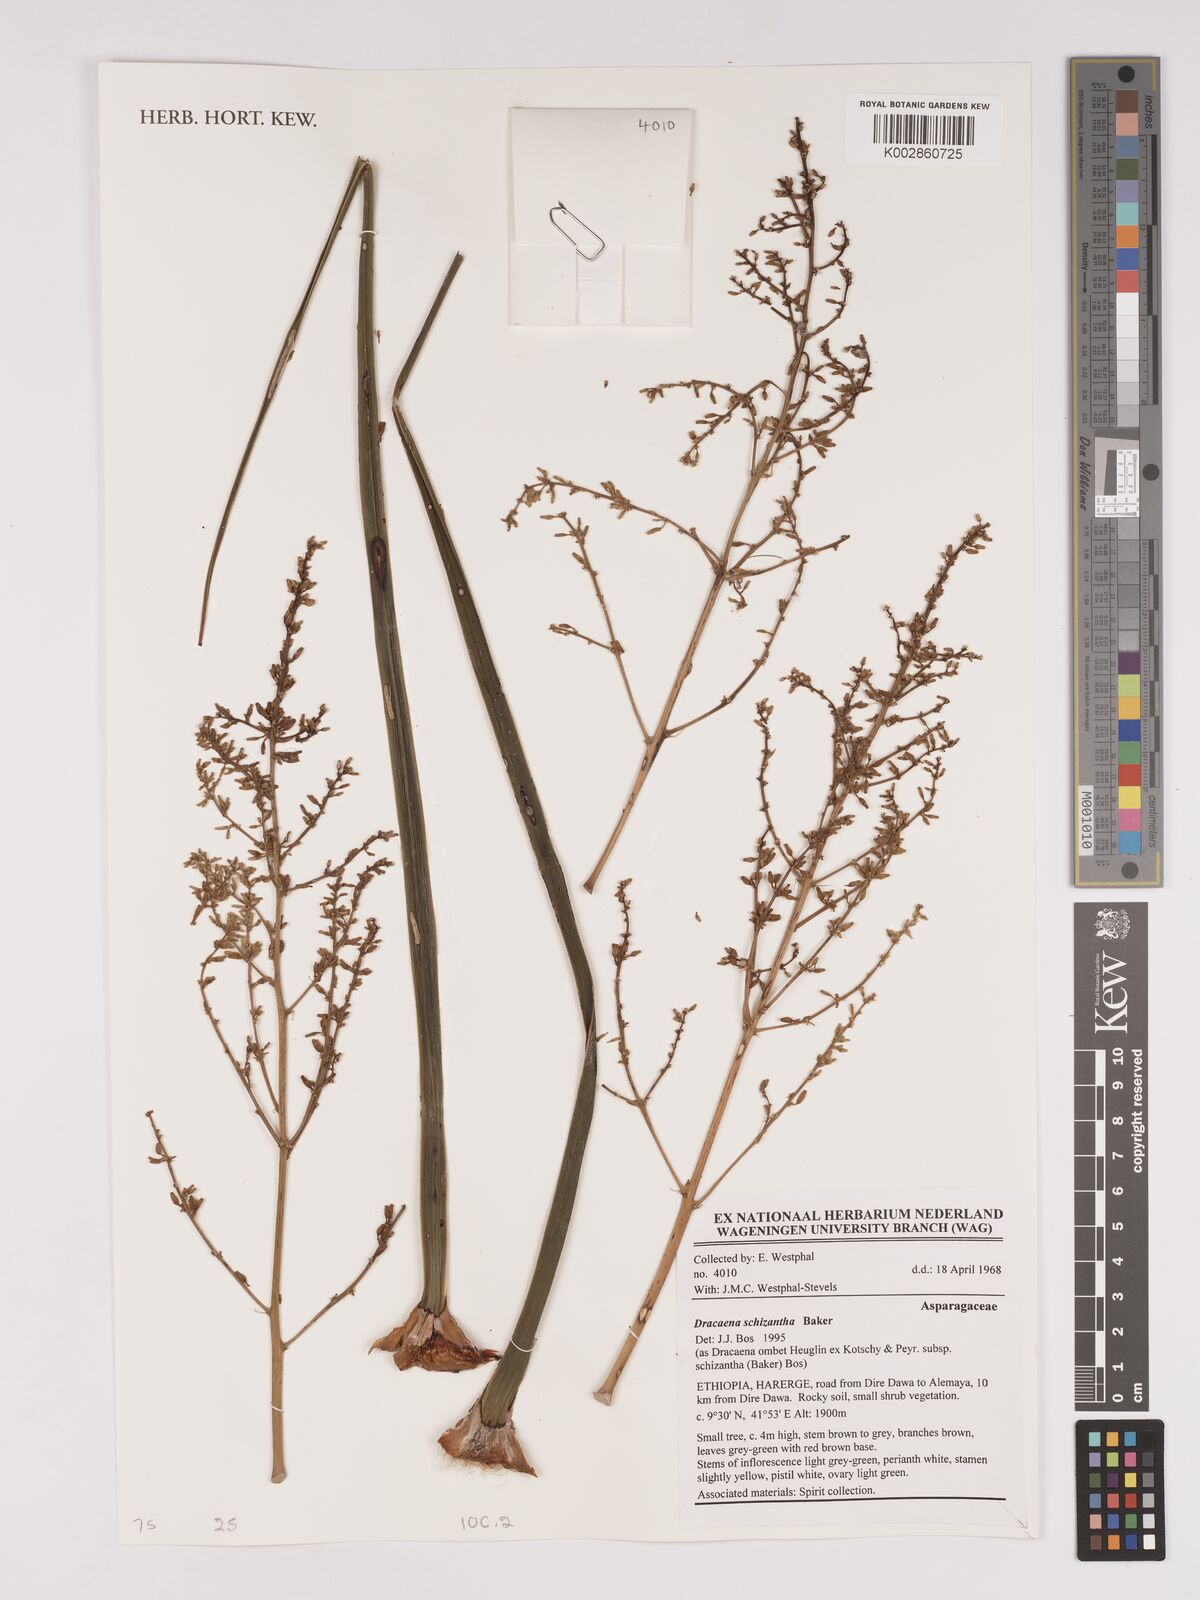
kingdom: Plantae
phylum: Tracheophyta
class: Liliopsida
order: Asparagales
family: Asparagaceae
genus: Dracaena
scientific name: Dracaena ombet
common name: Gabal elba dragon tree
